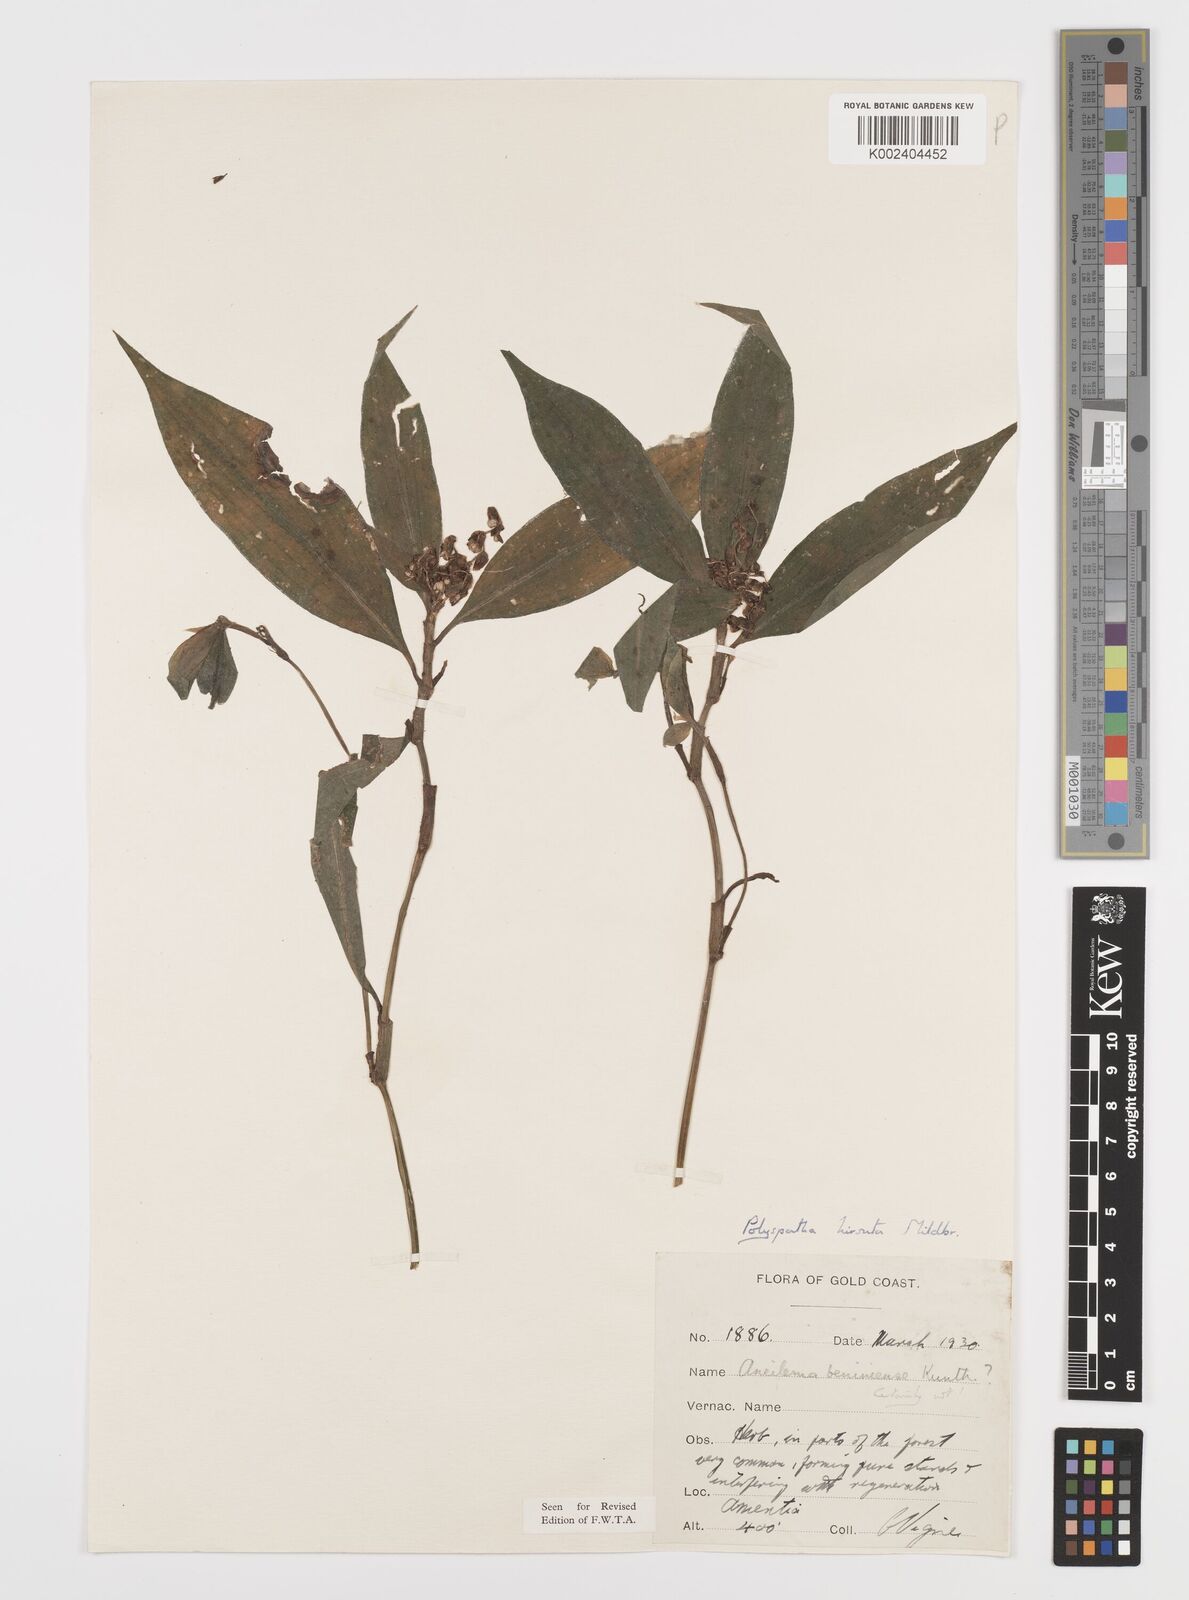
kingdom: Plantae
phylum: Tracheophyta
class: Liliopsida
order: Commelinales
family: Commelinaceae
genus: Polyspatha
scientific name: Polyspatha hirsuta
